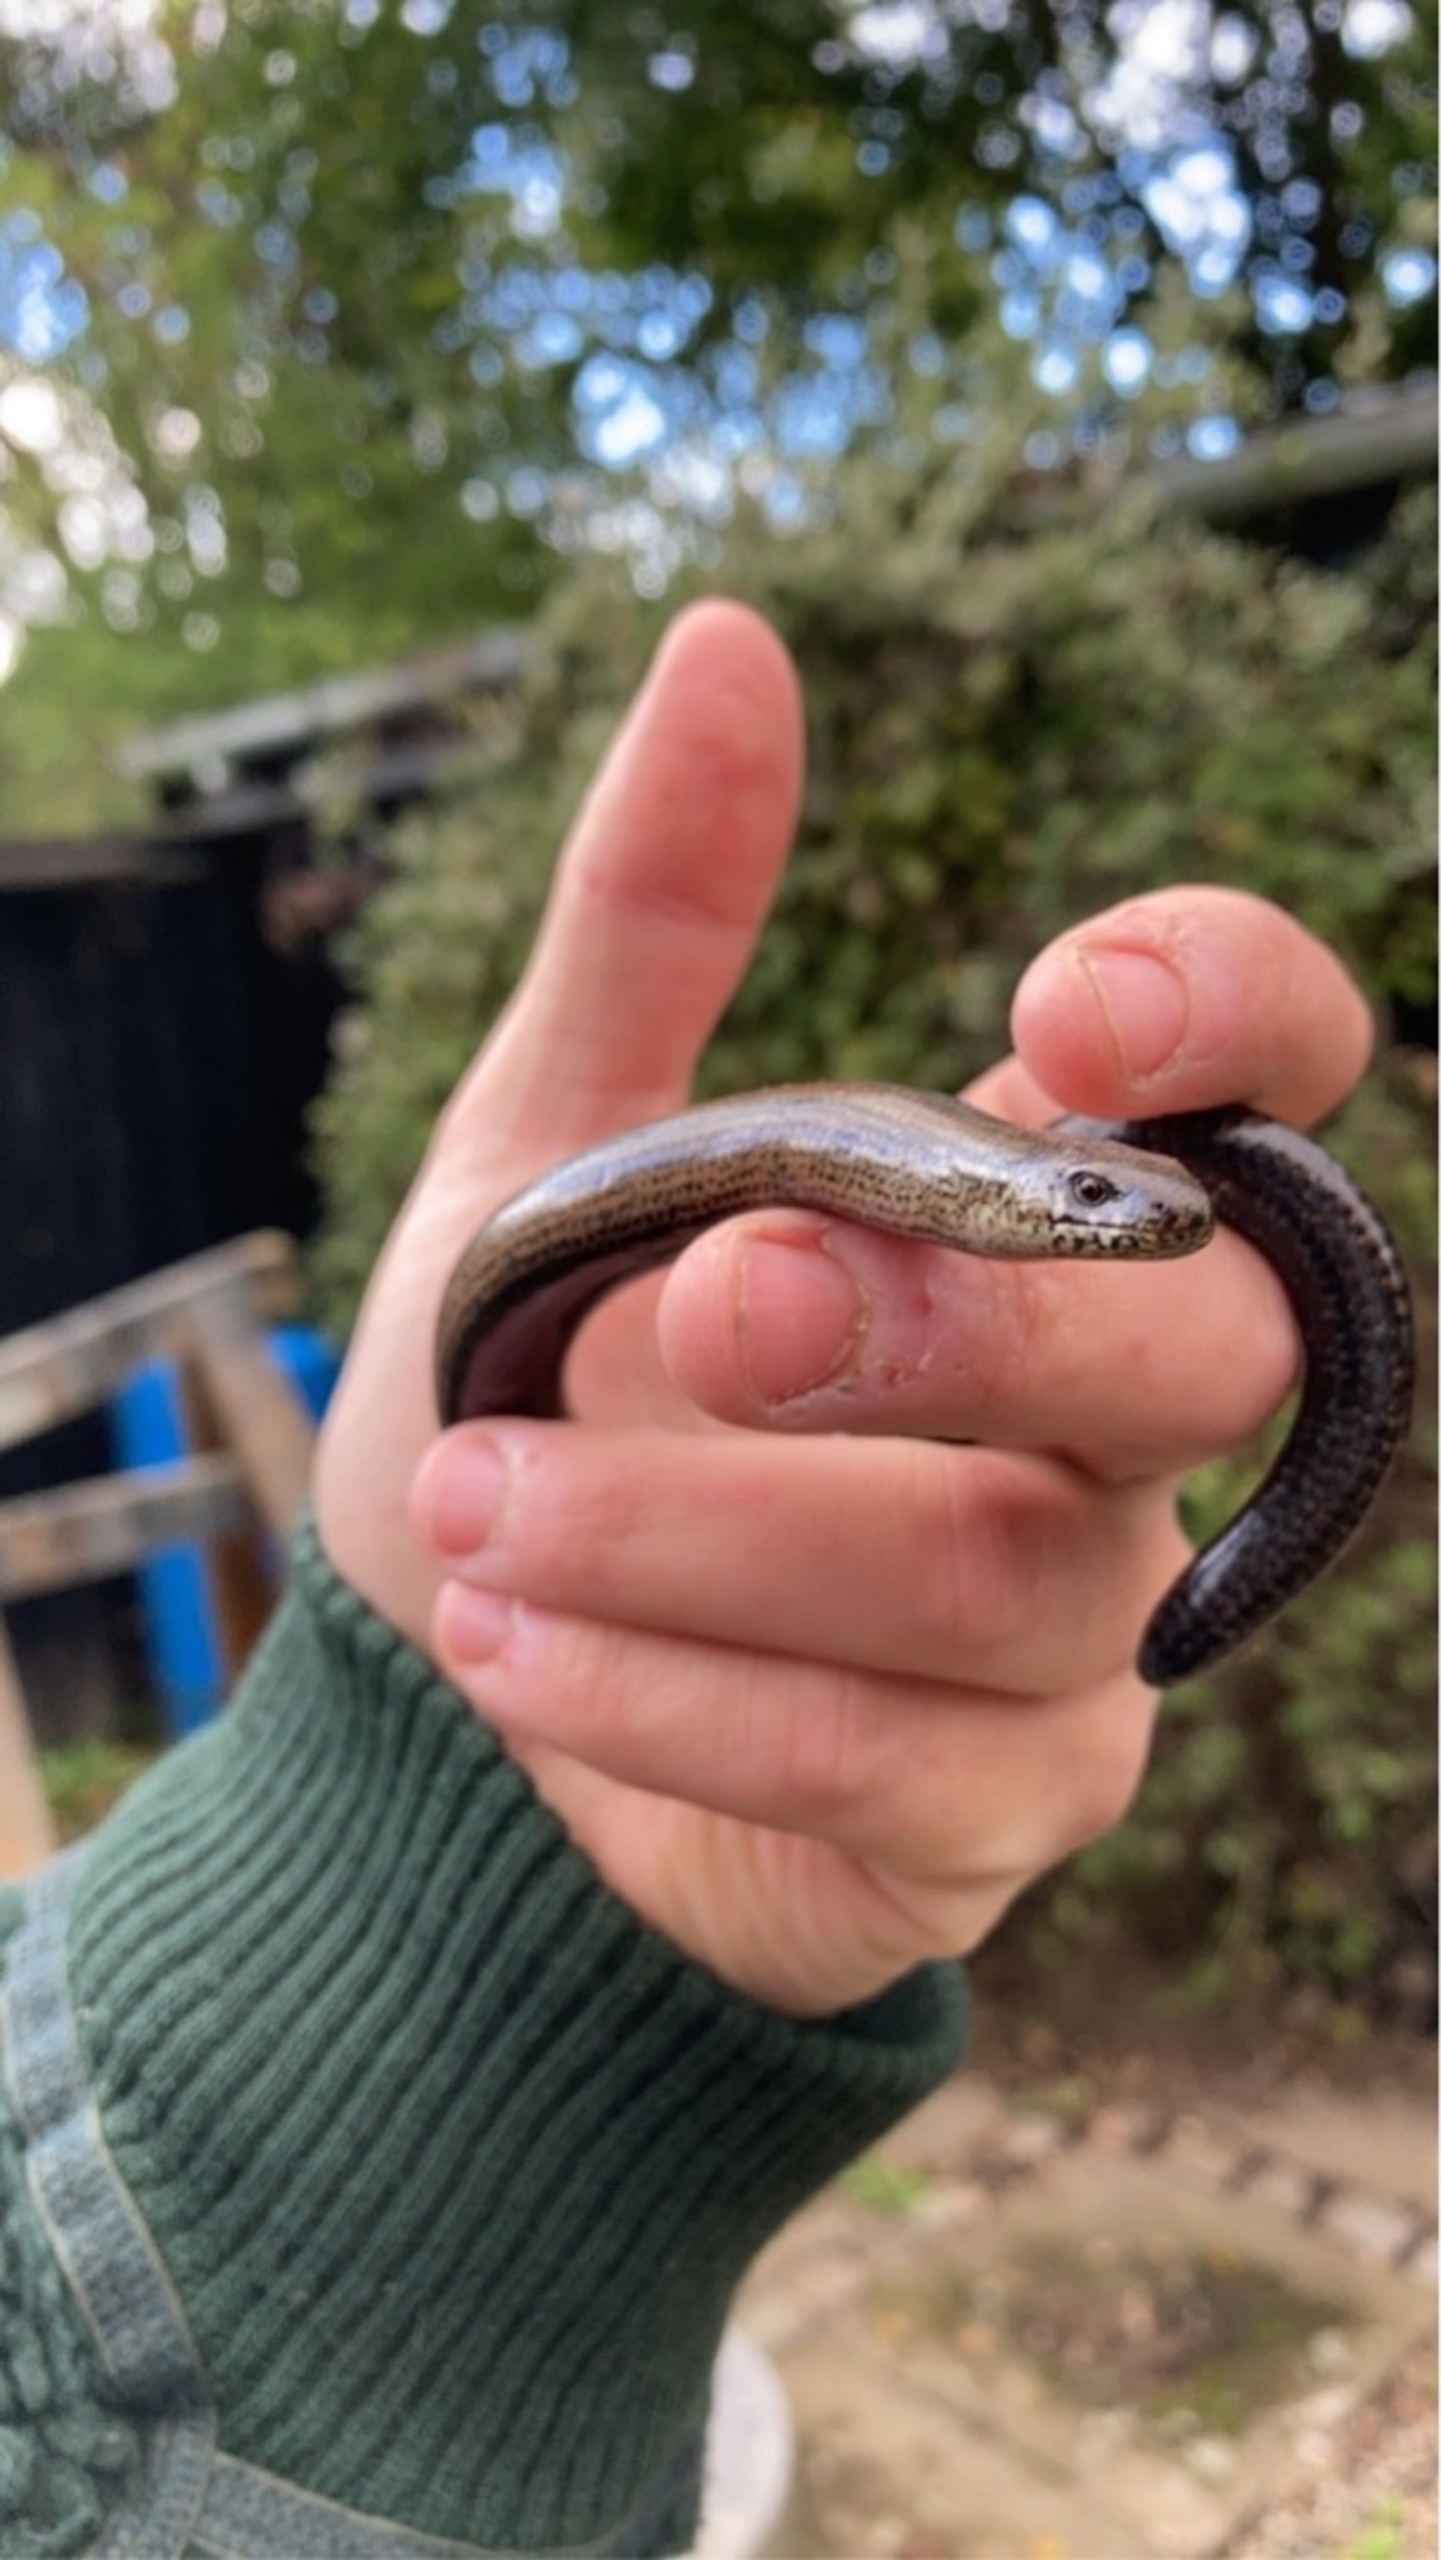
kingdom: Animalia
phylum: Chordata
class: Squamata
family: Anguidae
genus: Anguis
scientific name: Anguis fragilis
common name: Stålorm
